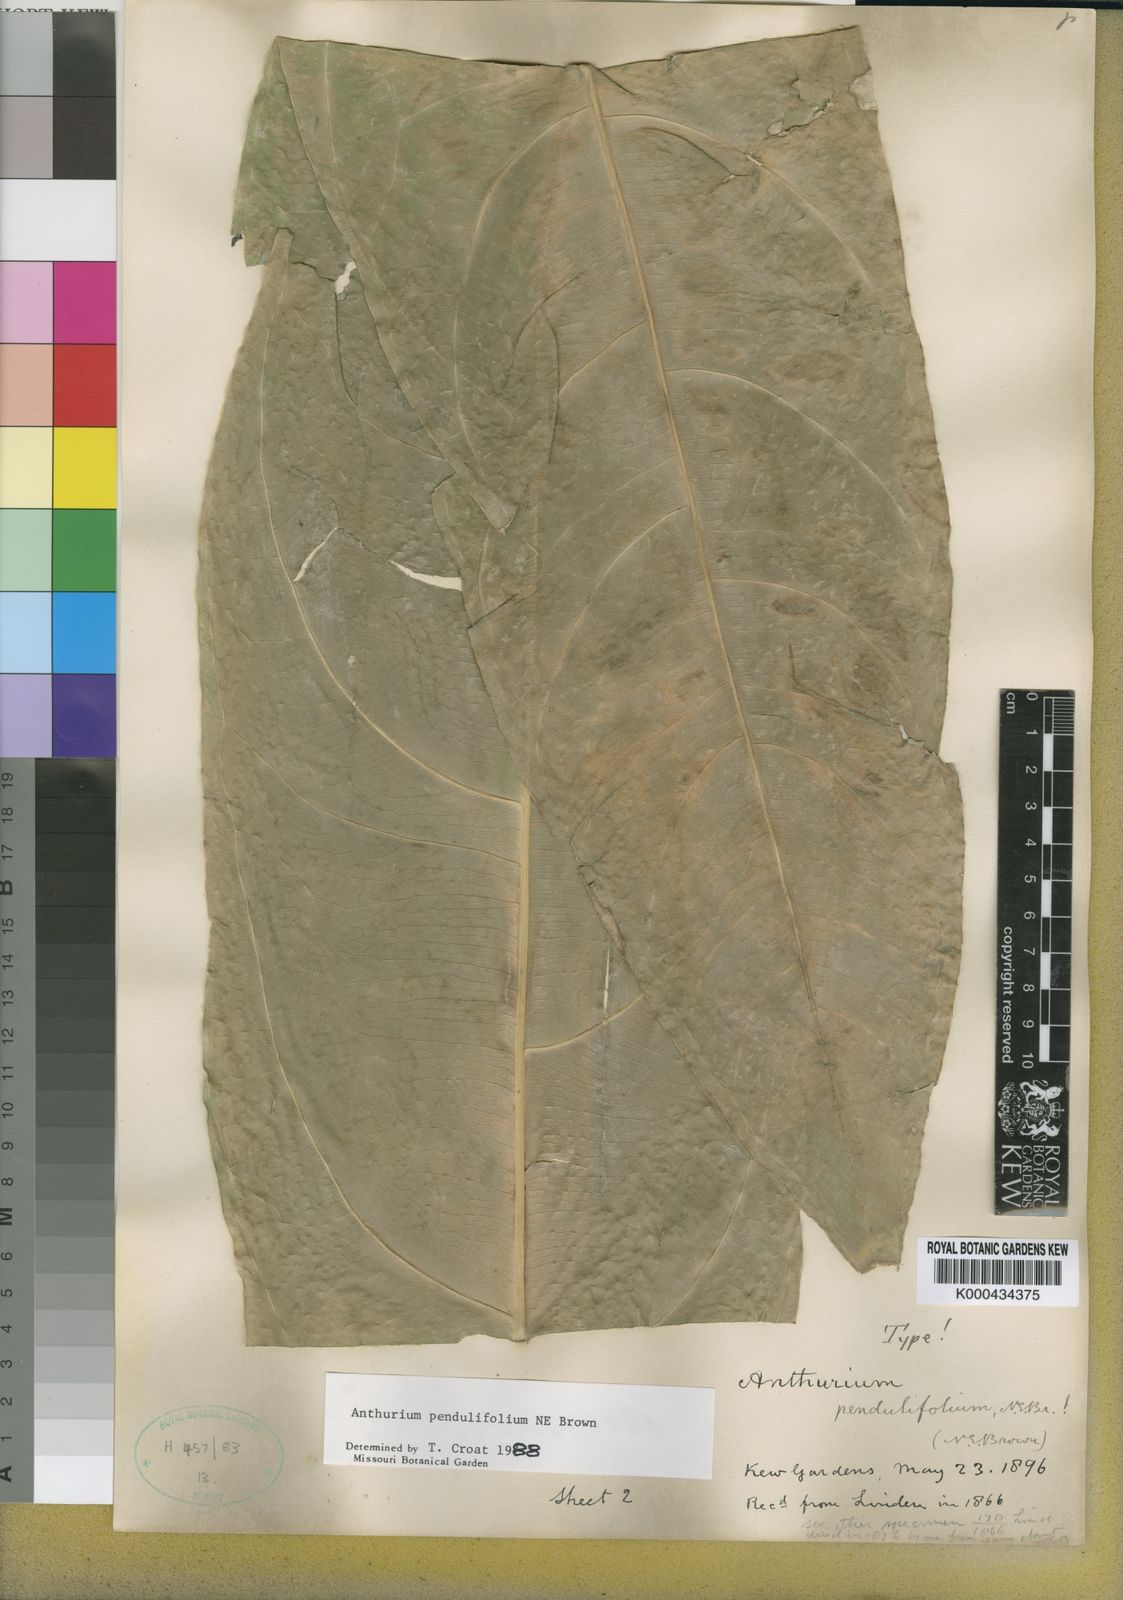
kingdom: Plantae
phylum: Tracheophyta
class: Liliopsida
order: Alismatales
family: Araceae
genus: Anthurium
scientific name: Anthurium pendulifolium
